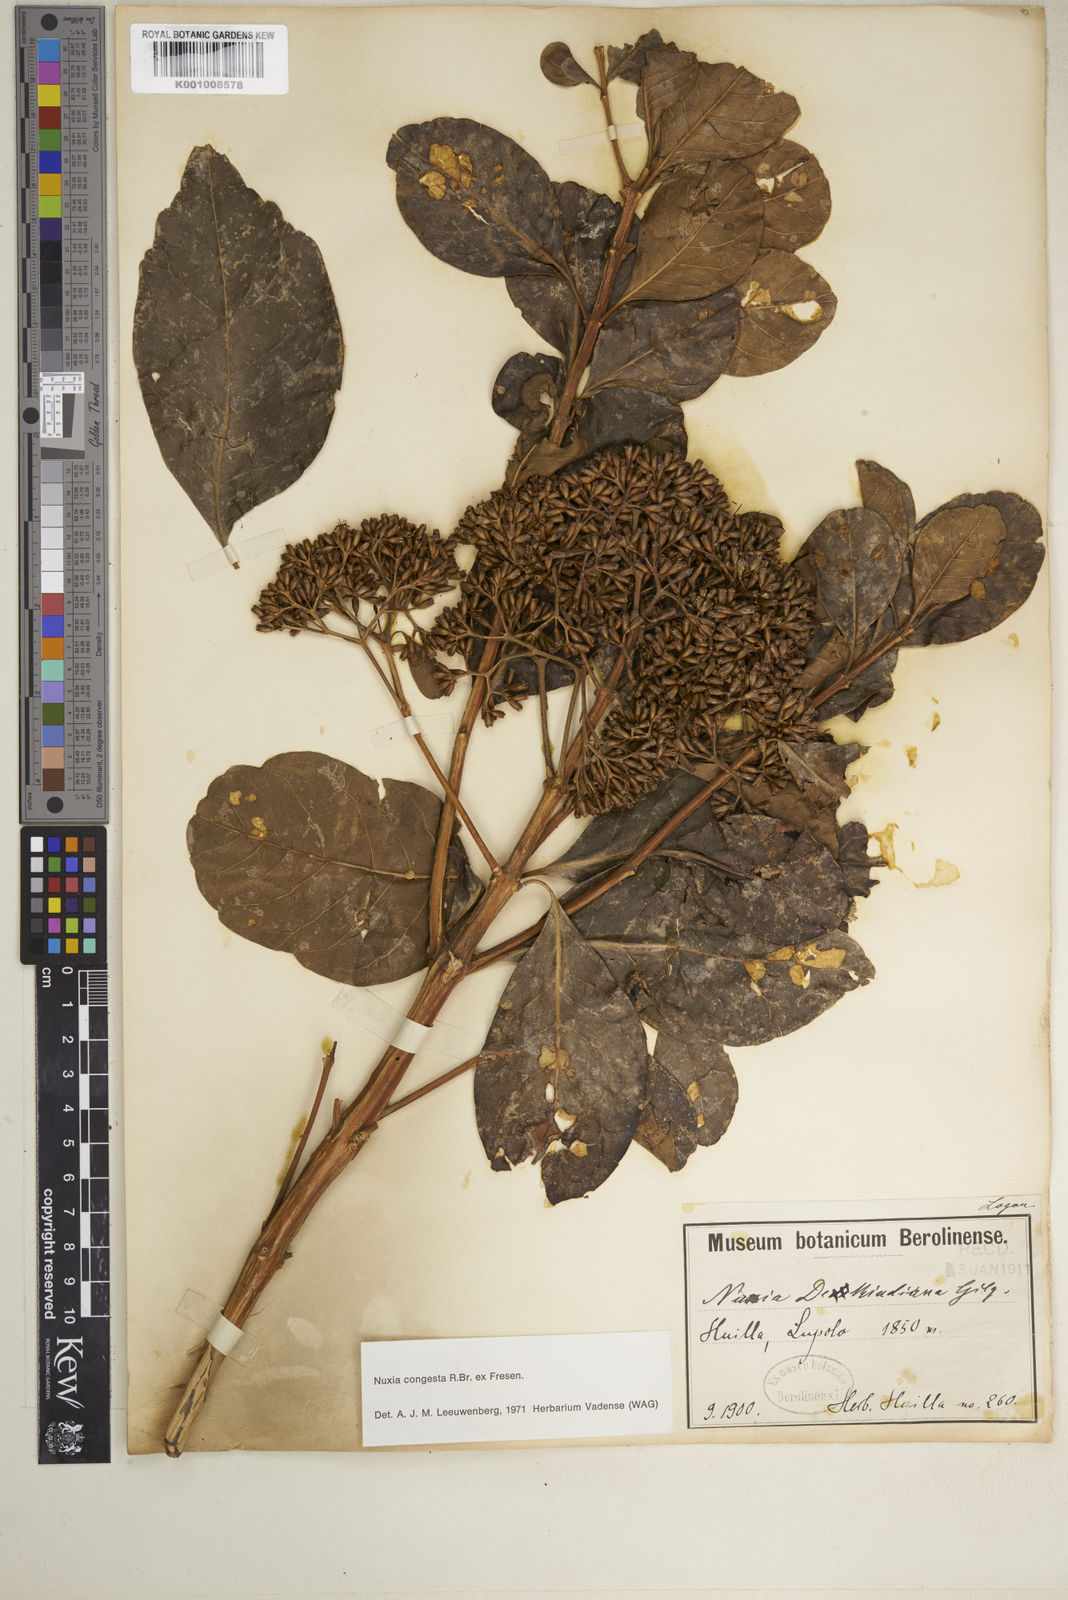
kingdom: Plantae
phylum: Tracheophyta
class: Magnoliopsida
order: Lamiales
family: Stilbaceae
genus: Nuxia
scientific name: Nuxia congesta
